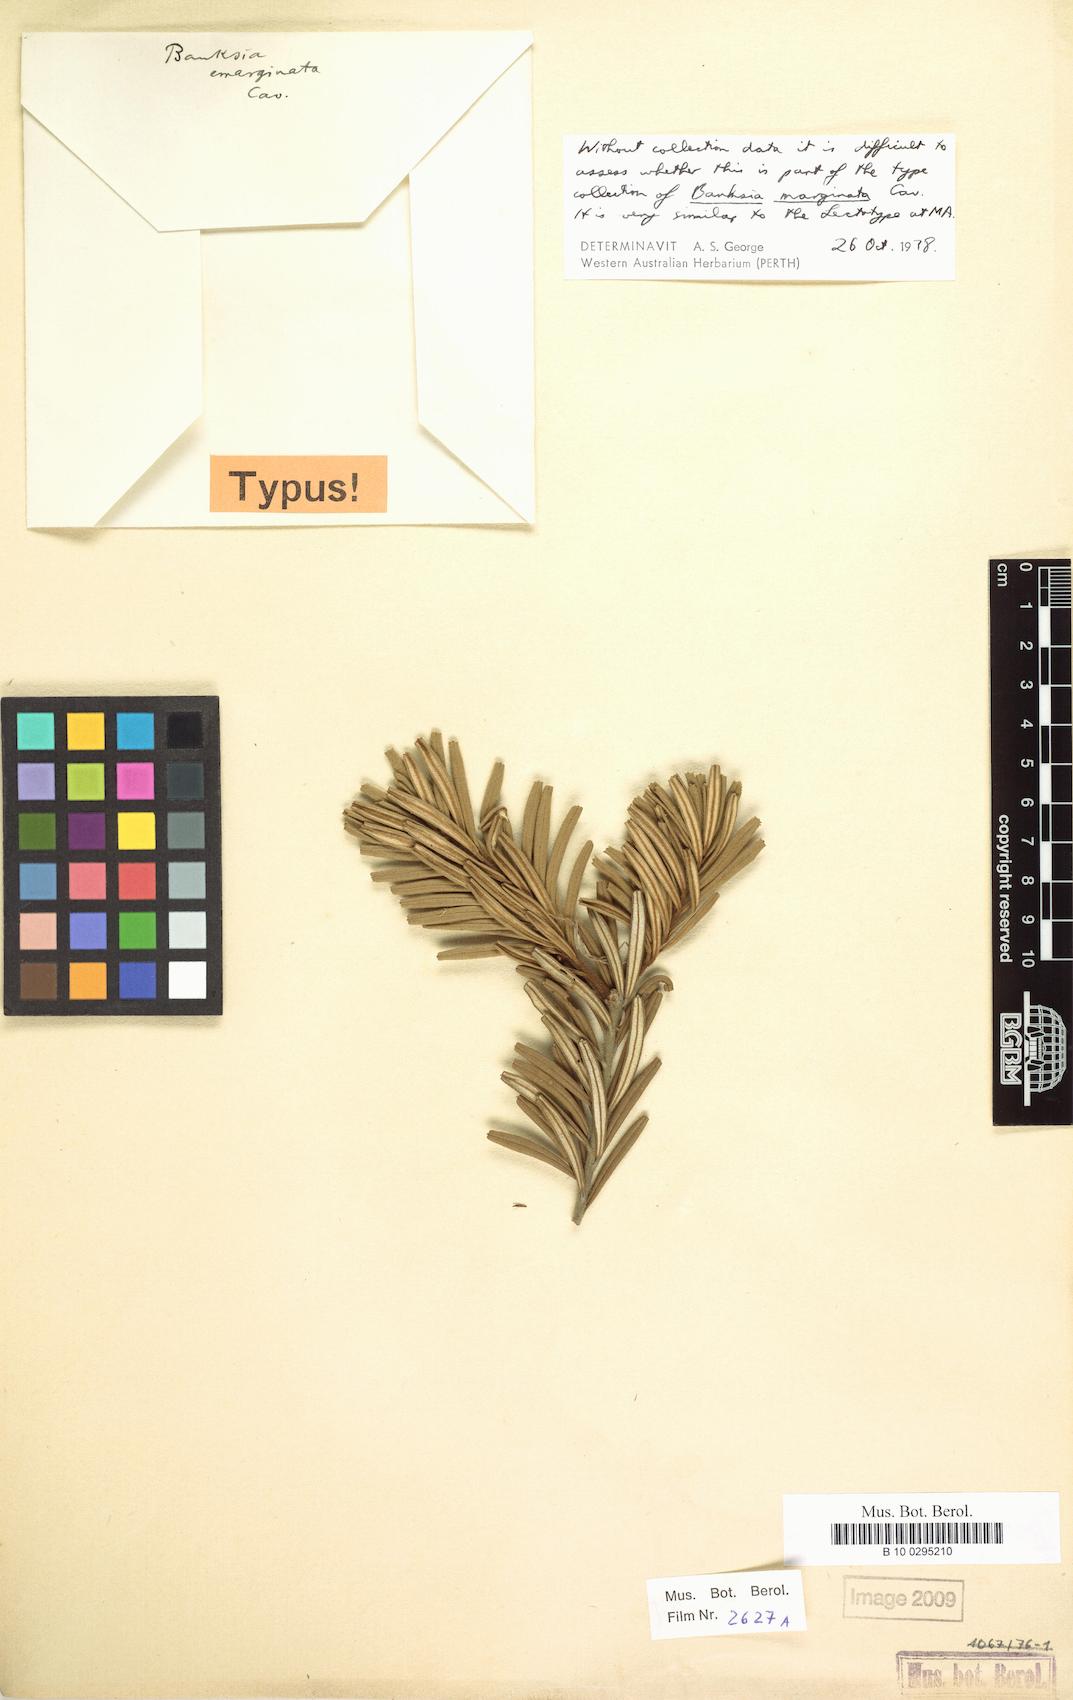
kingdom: Plantae
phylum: Tracheophyta
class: Magnoliopsida
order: Proteales
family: Proteaceae
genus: Banksia
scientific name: Banksia marginata
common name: Silver banksia
